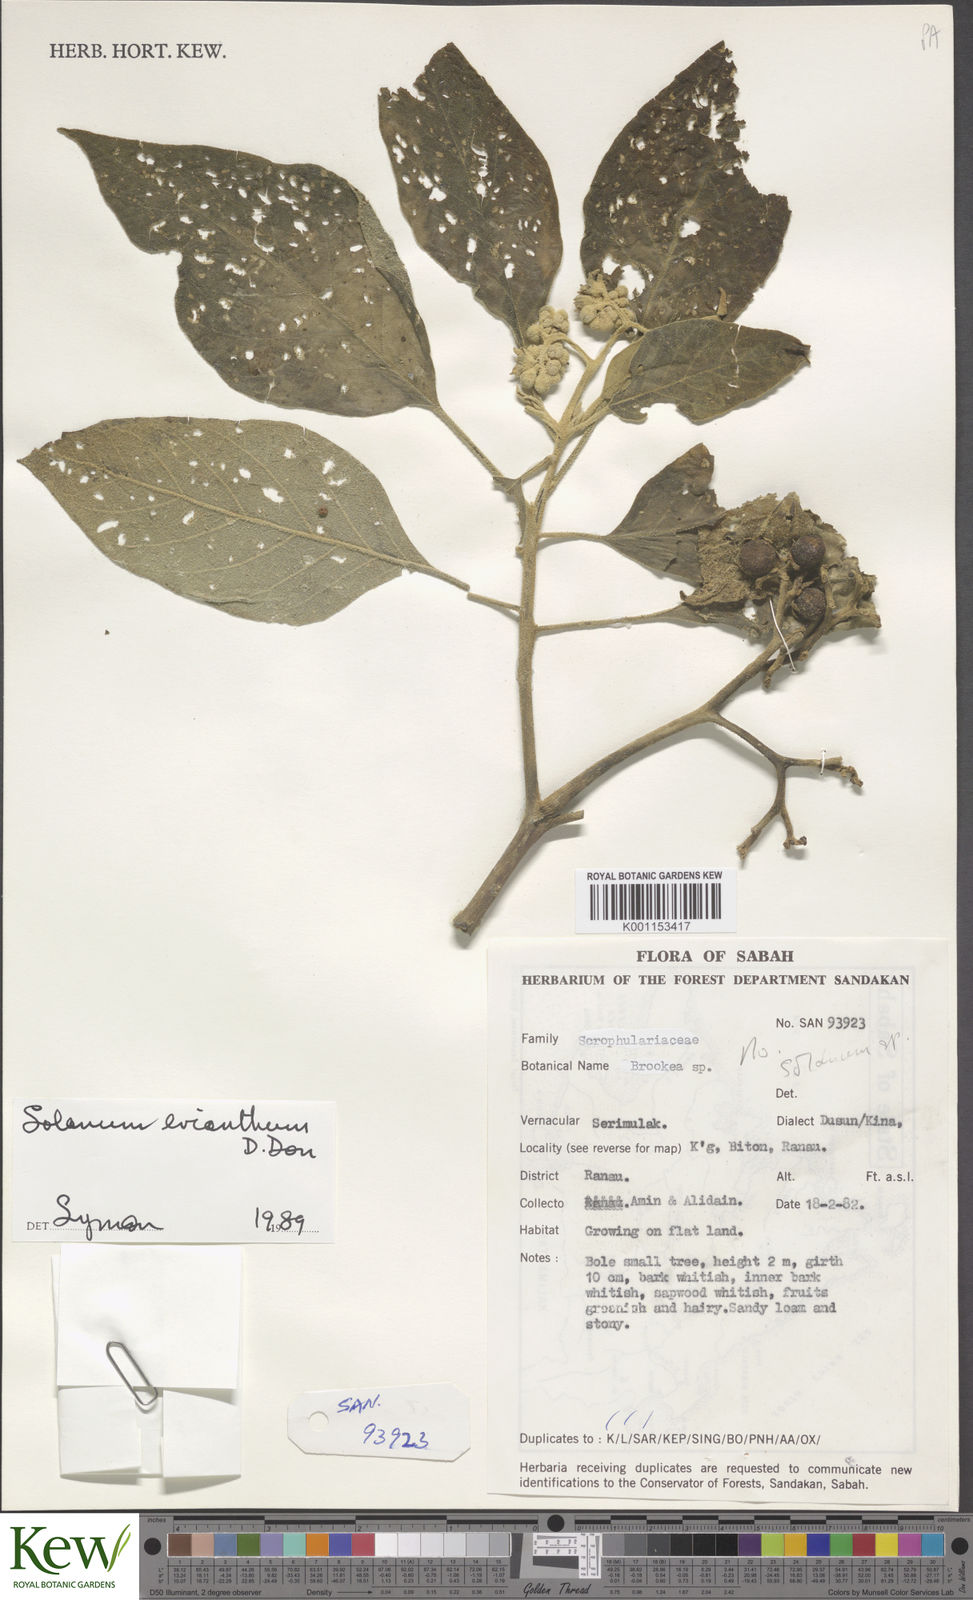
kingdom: Plantae
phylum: Tracheophyta
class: Magnoliopsida
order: Solanales
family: Solanaceae
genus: Solanum
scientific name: Solanum erianthum
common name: Tobacco-tree
